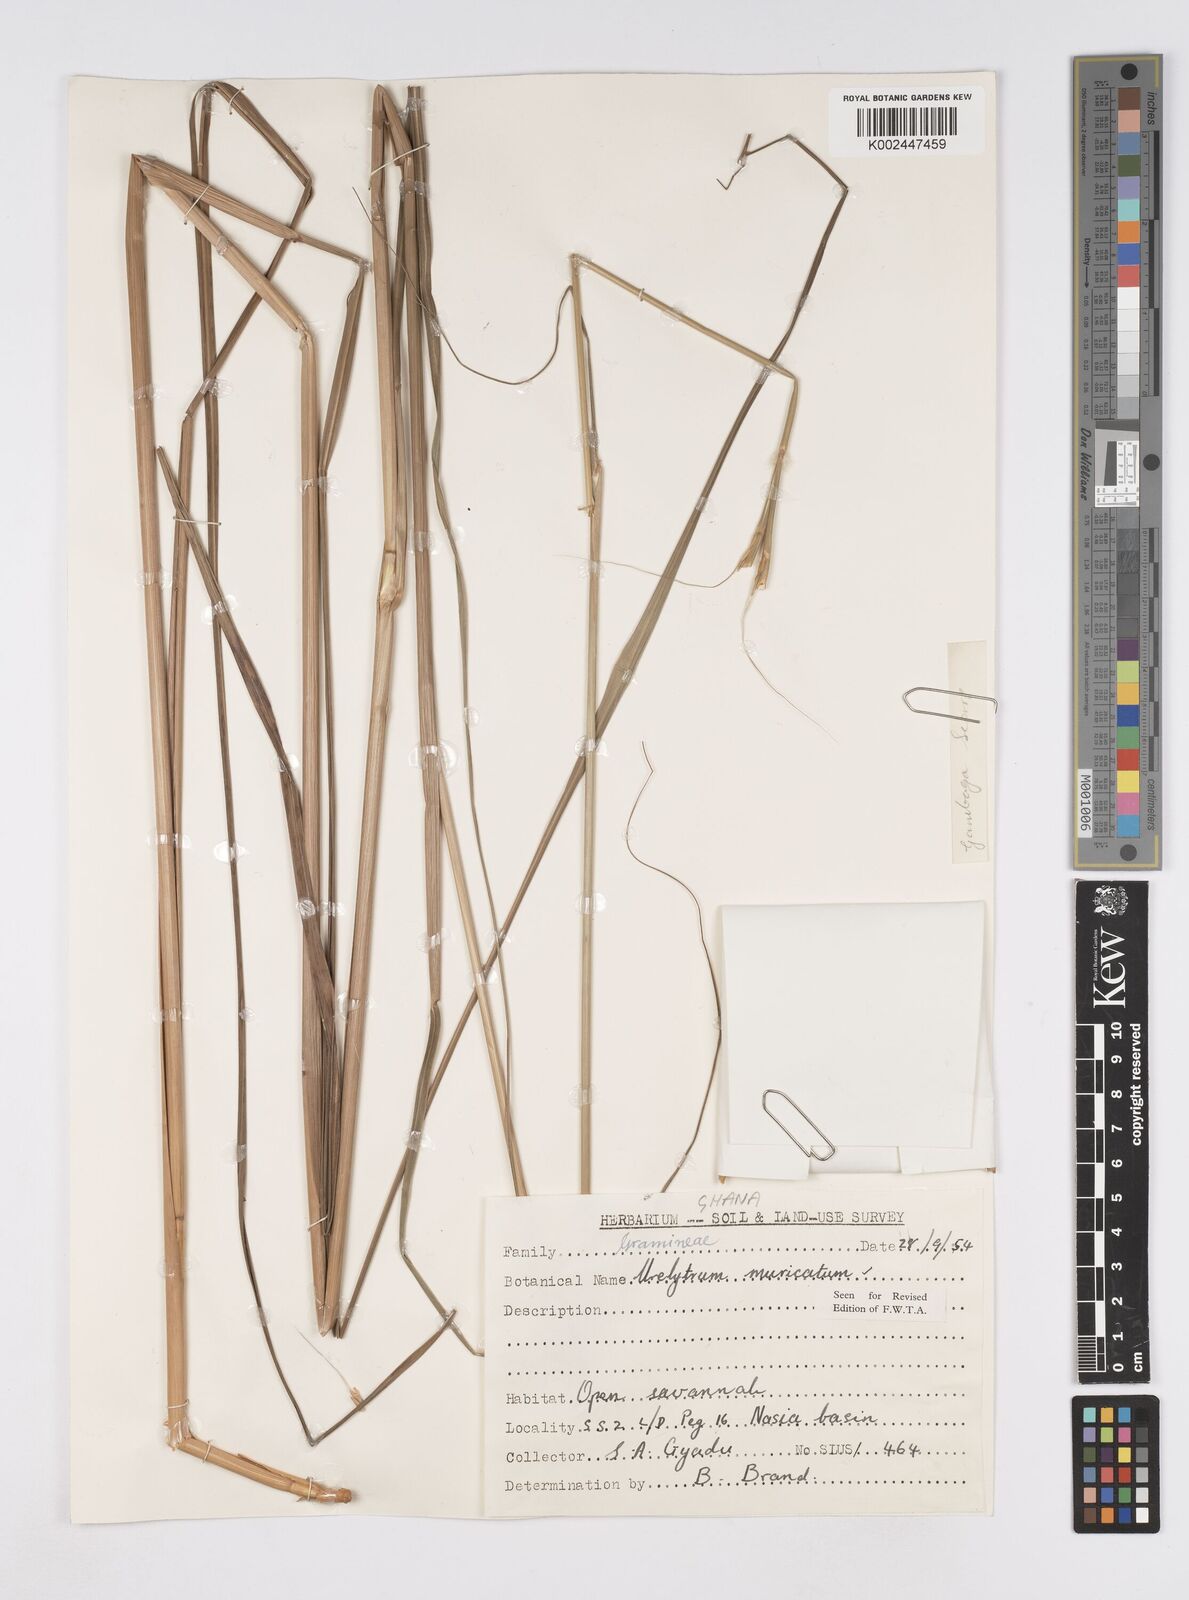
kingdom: Plantae
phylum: Tracheophyta
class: Liliopsida
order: Poales
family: Poaceae
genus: Urelytrum
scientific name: Urelytrum muricatum
